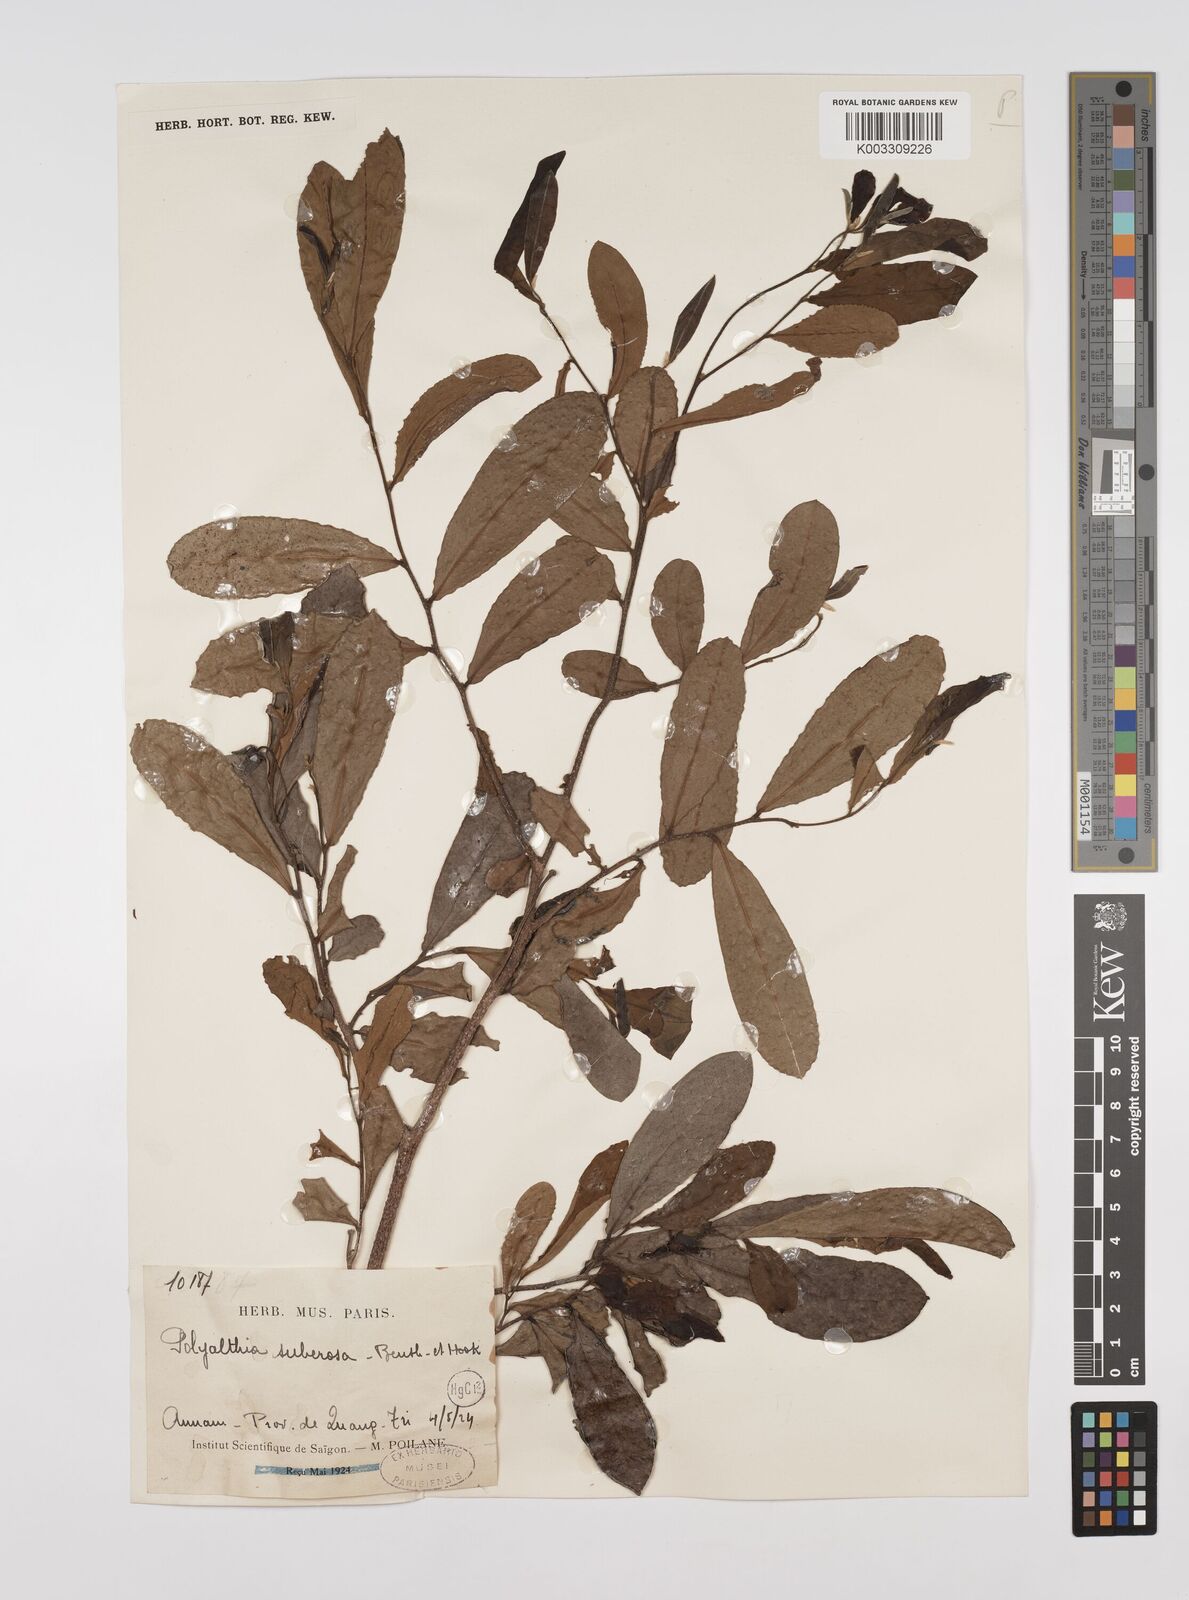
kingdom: Plantae
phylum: Tracheophyta
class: Magnoliopsida
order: Magnoliales
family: Annonaceae
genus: Polyalthia
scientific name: Polyalthia suberosa
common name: Polyalthia plant
